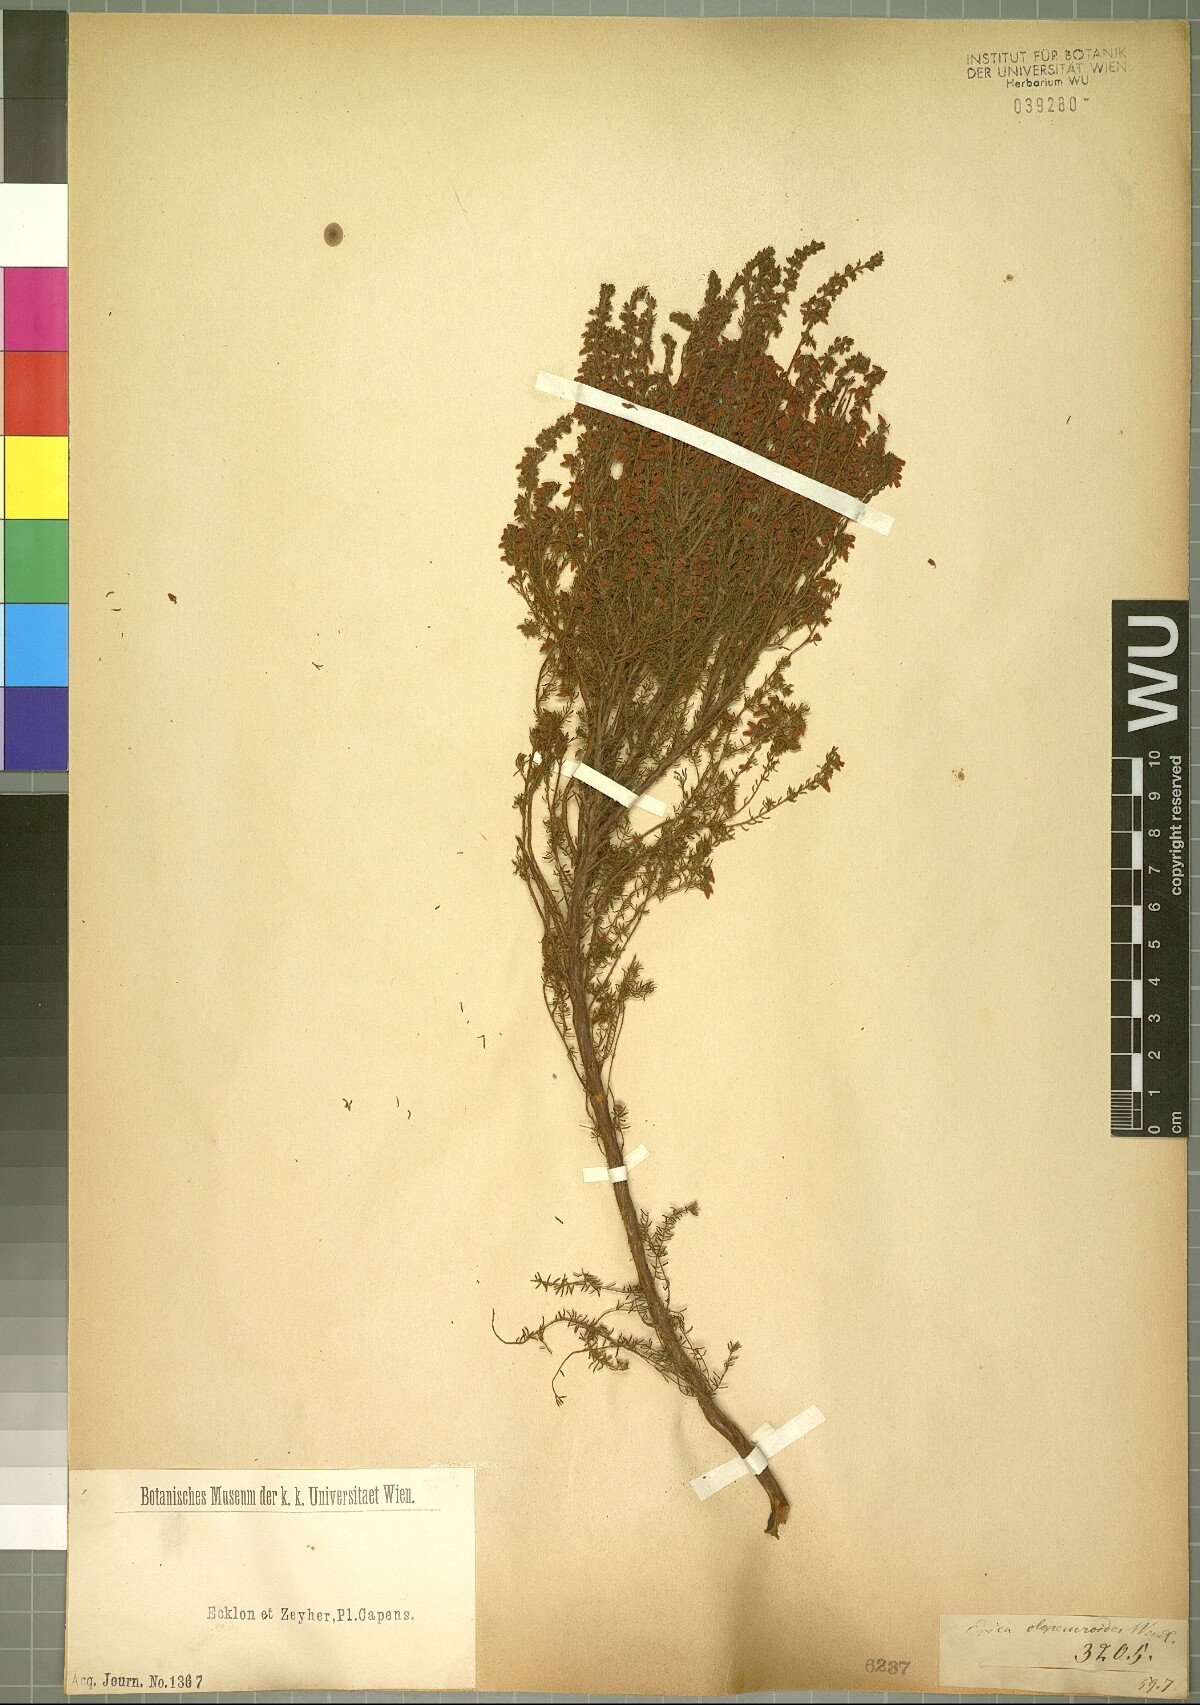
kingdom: Plantae
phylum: Tracheophyta
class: Magnoliopsida
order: Ericales
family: Ericaceae
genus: Erica
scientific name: Erica intervallaris
